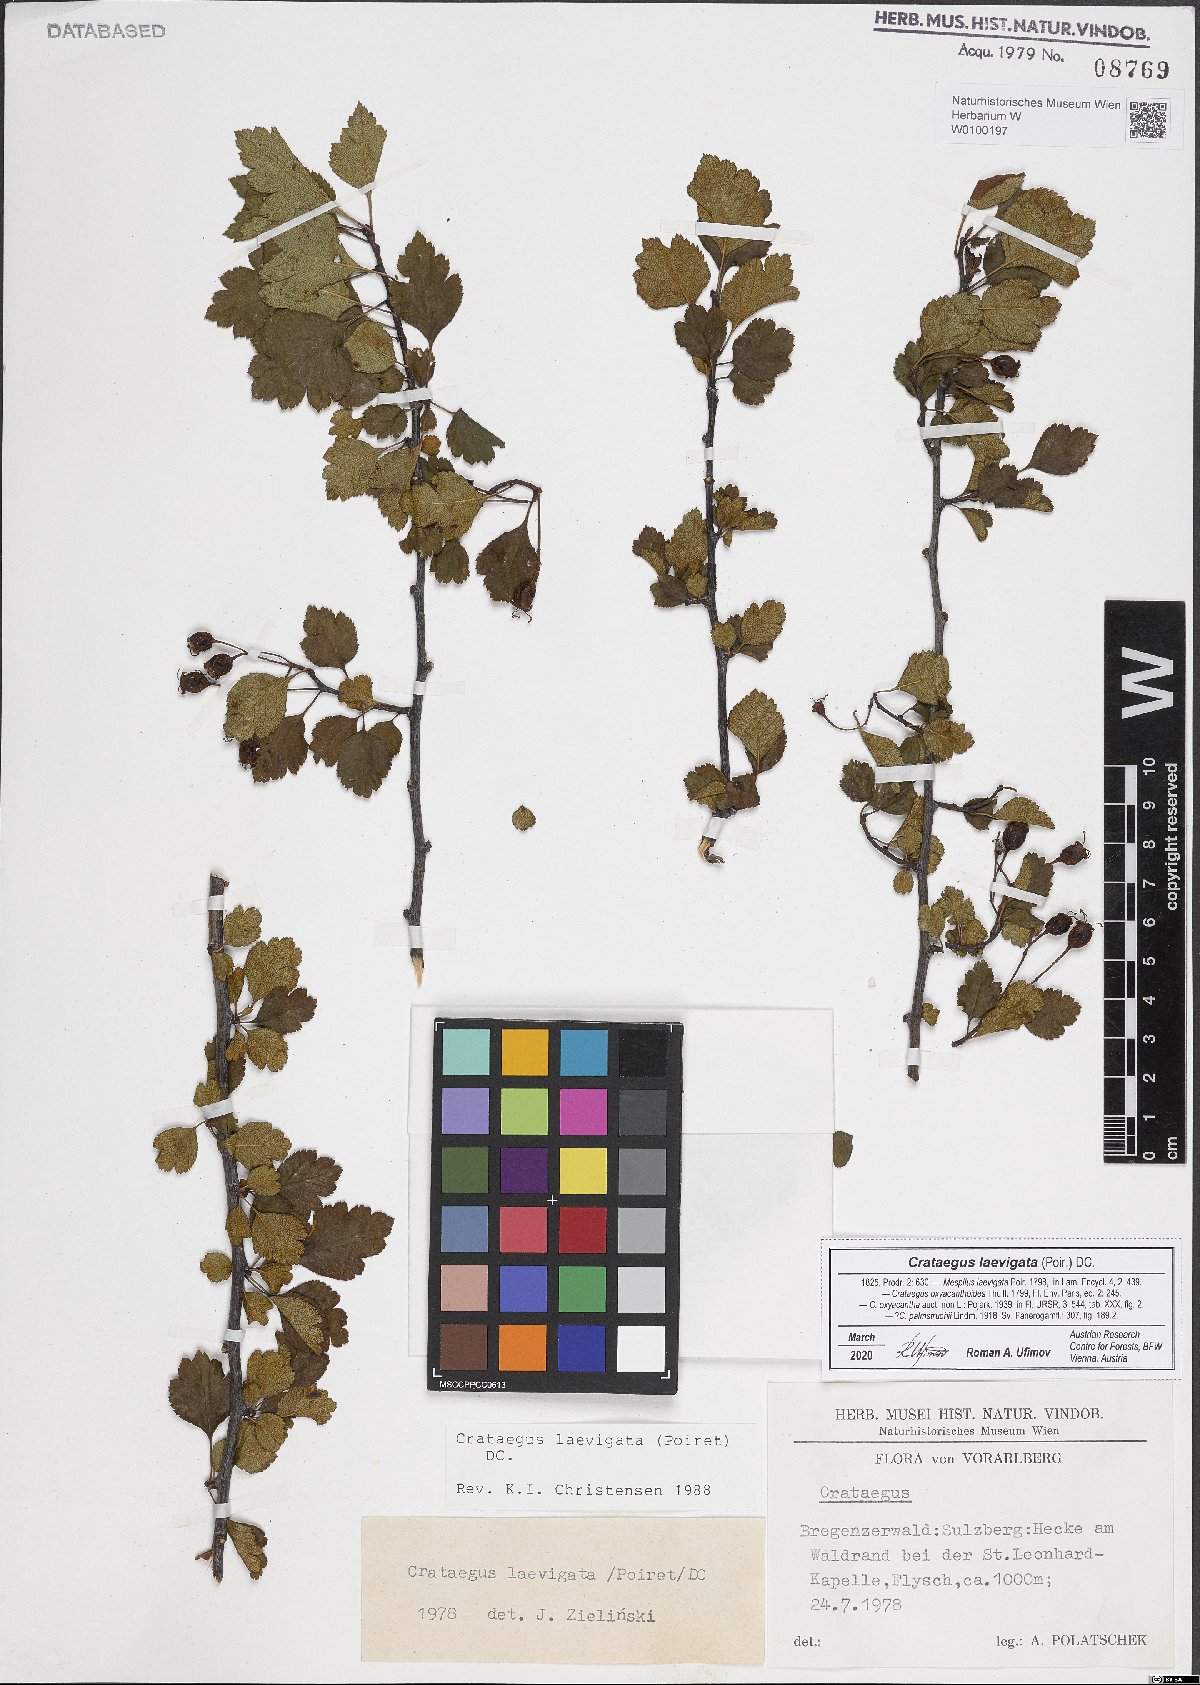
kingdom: Plantae
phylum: Tracheophyta
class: Magnoliopsida
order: Rosales
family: Rosaceae
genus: Crataegus
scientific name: Crataegus laevigata
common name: Midland hawthorn
